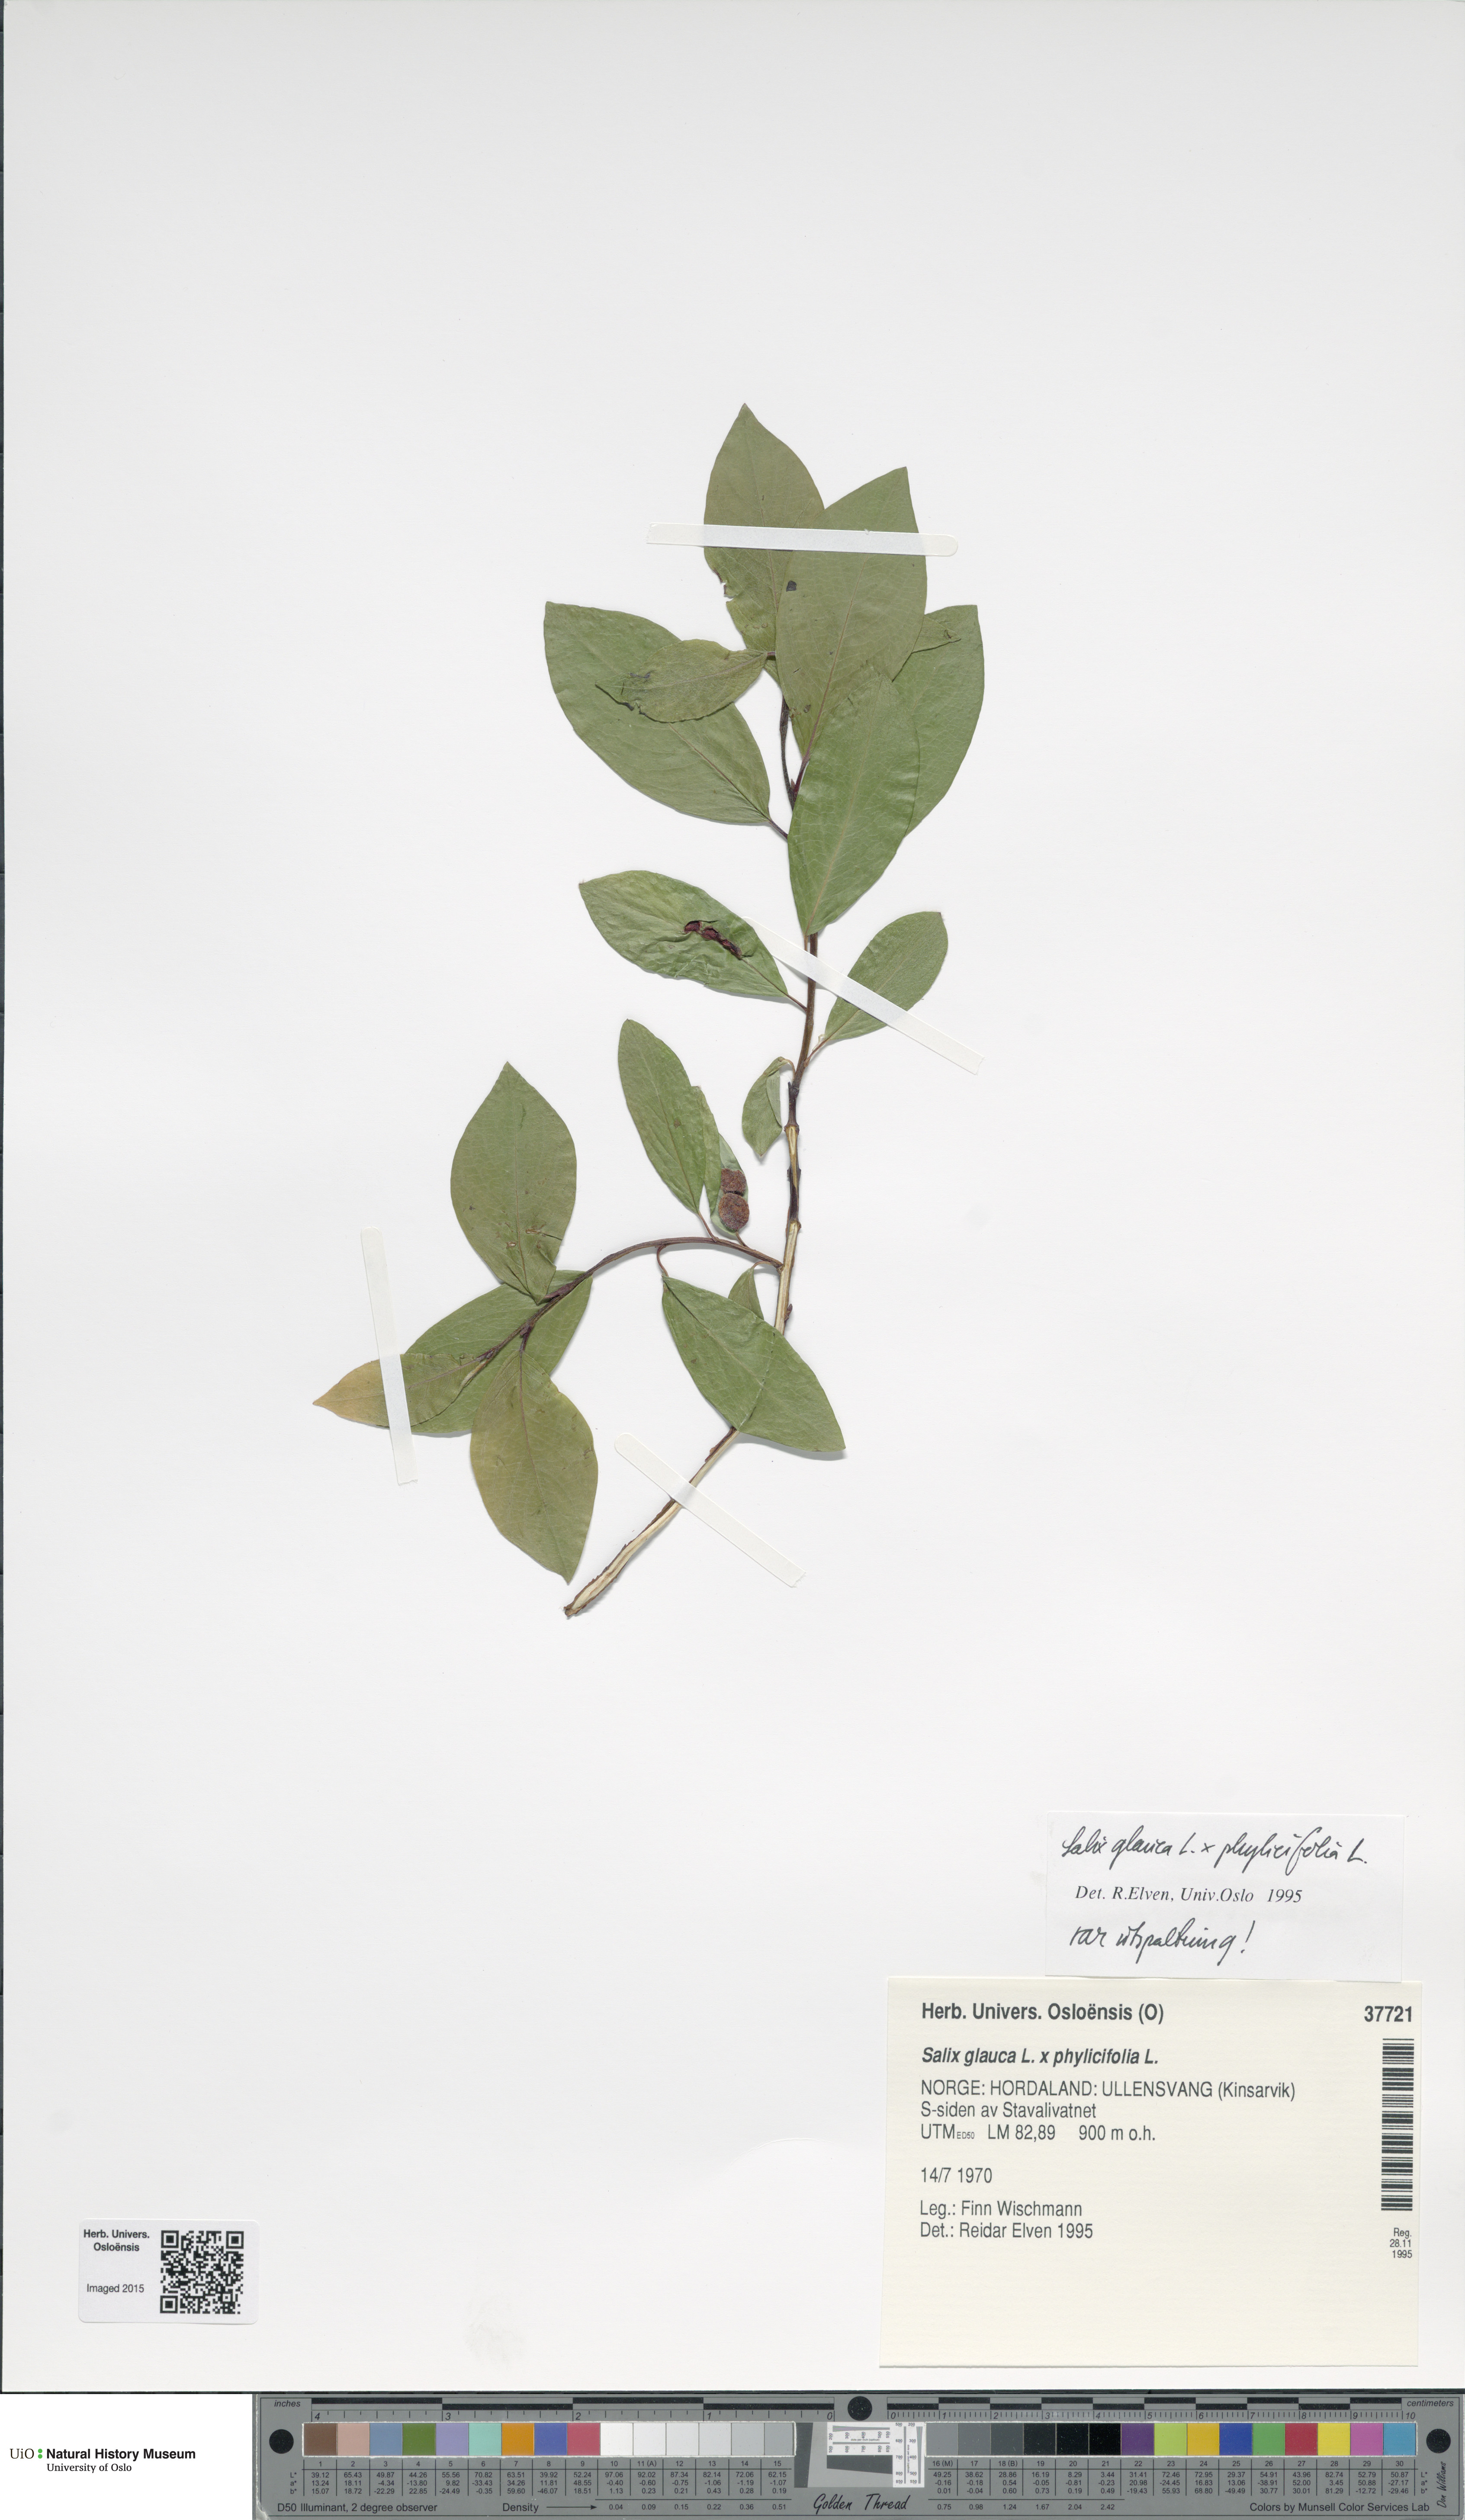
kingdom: Plantae
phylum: Tracheophyta
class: Magnoliopsida
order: Malpighiales
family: Salicaceae
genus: Salix
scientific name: Salix
